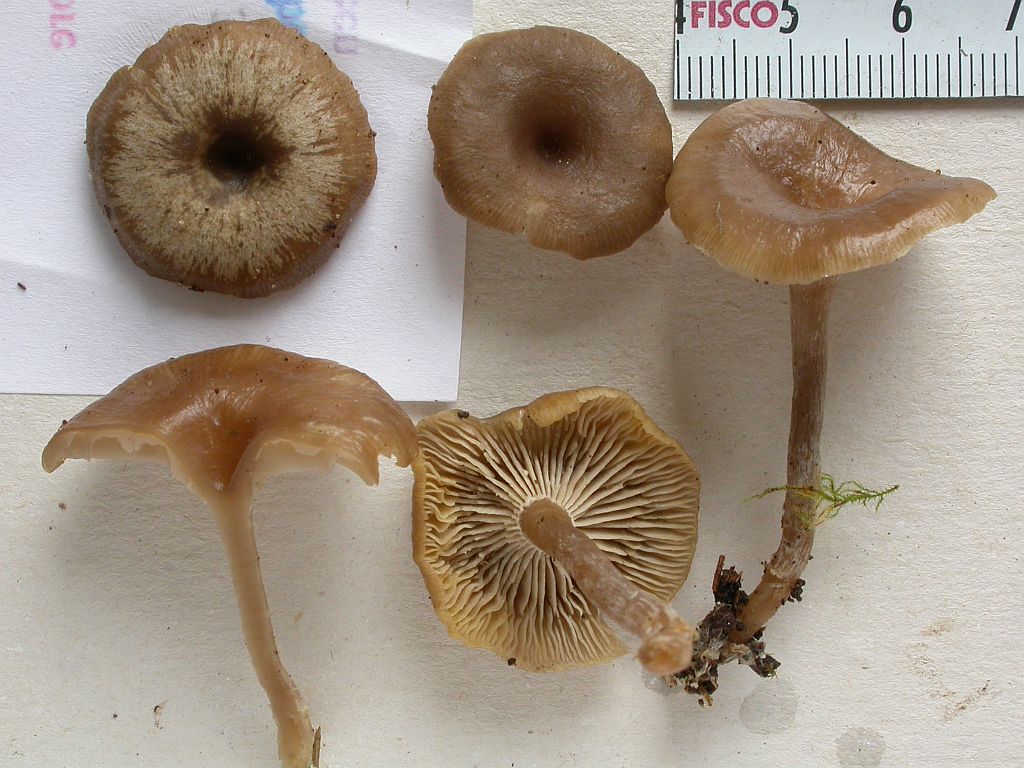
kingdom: Fungi
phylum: Basidiomycota
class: Agaricomycetes
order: Agaricales
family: Lyophyllaceae
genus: Clitolyophyllum
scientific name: Clitolyophyllum akcaabatense
